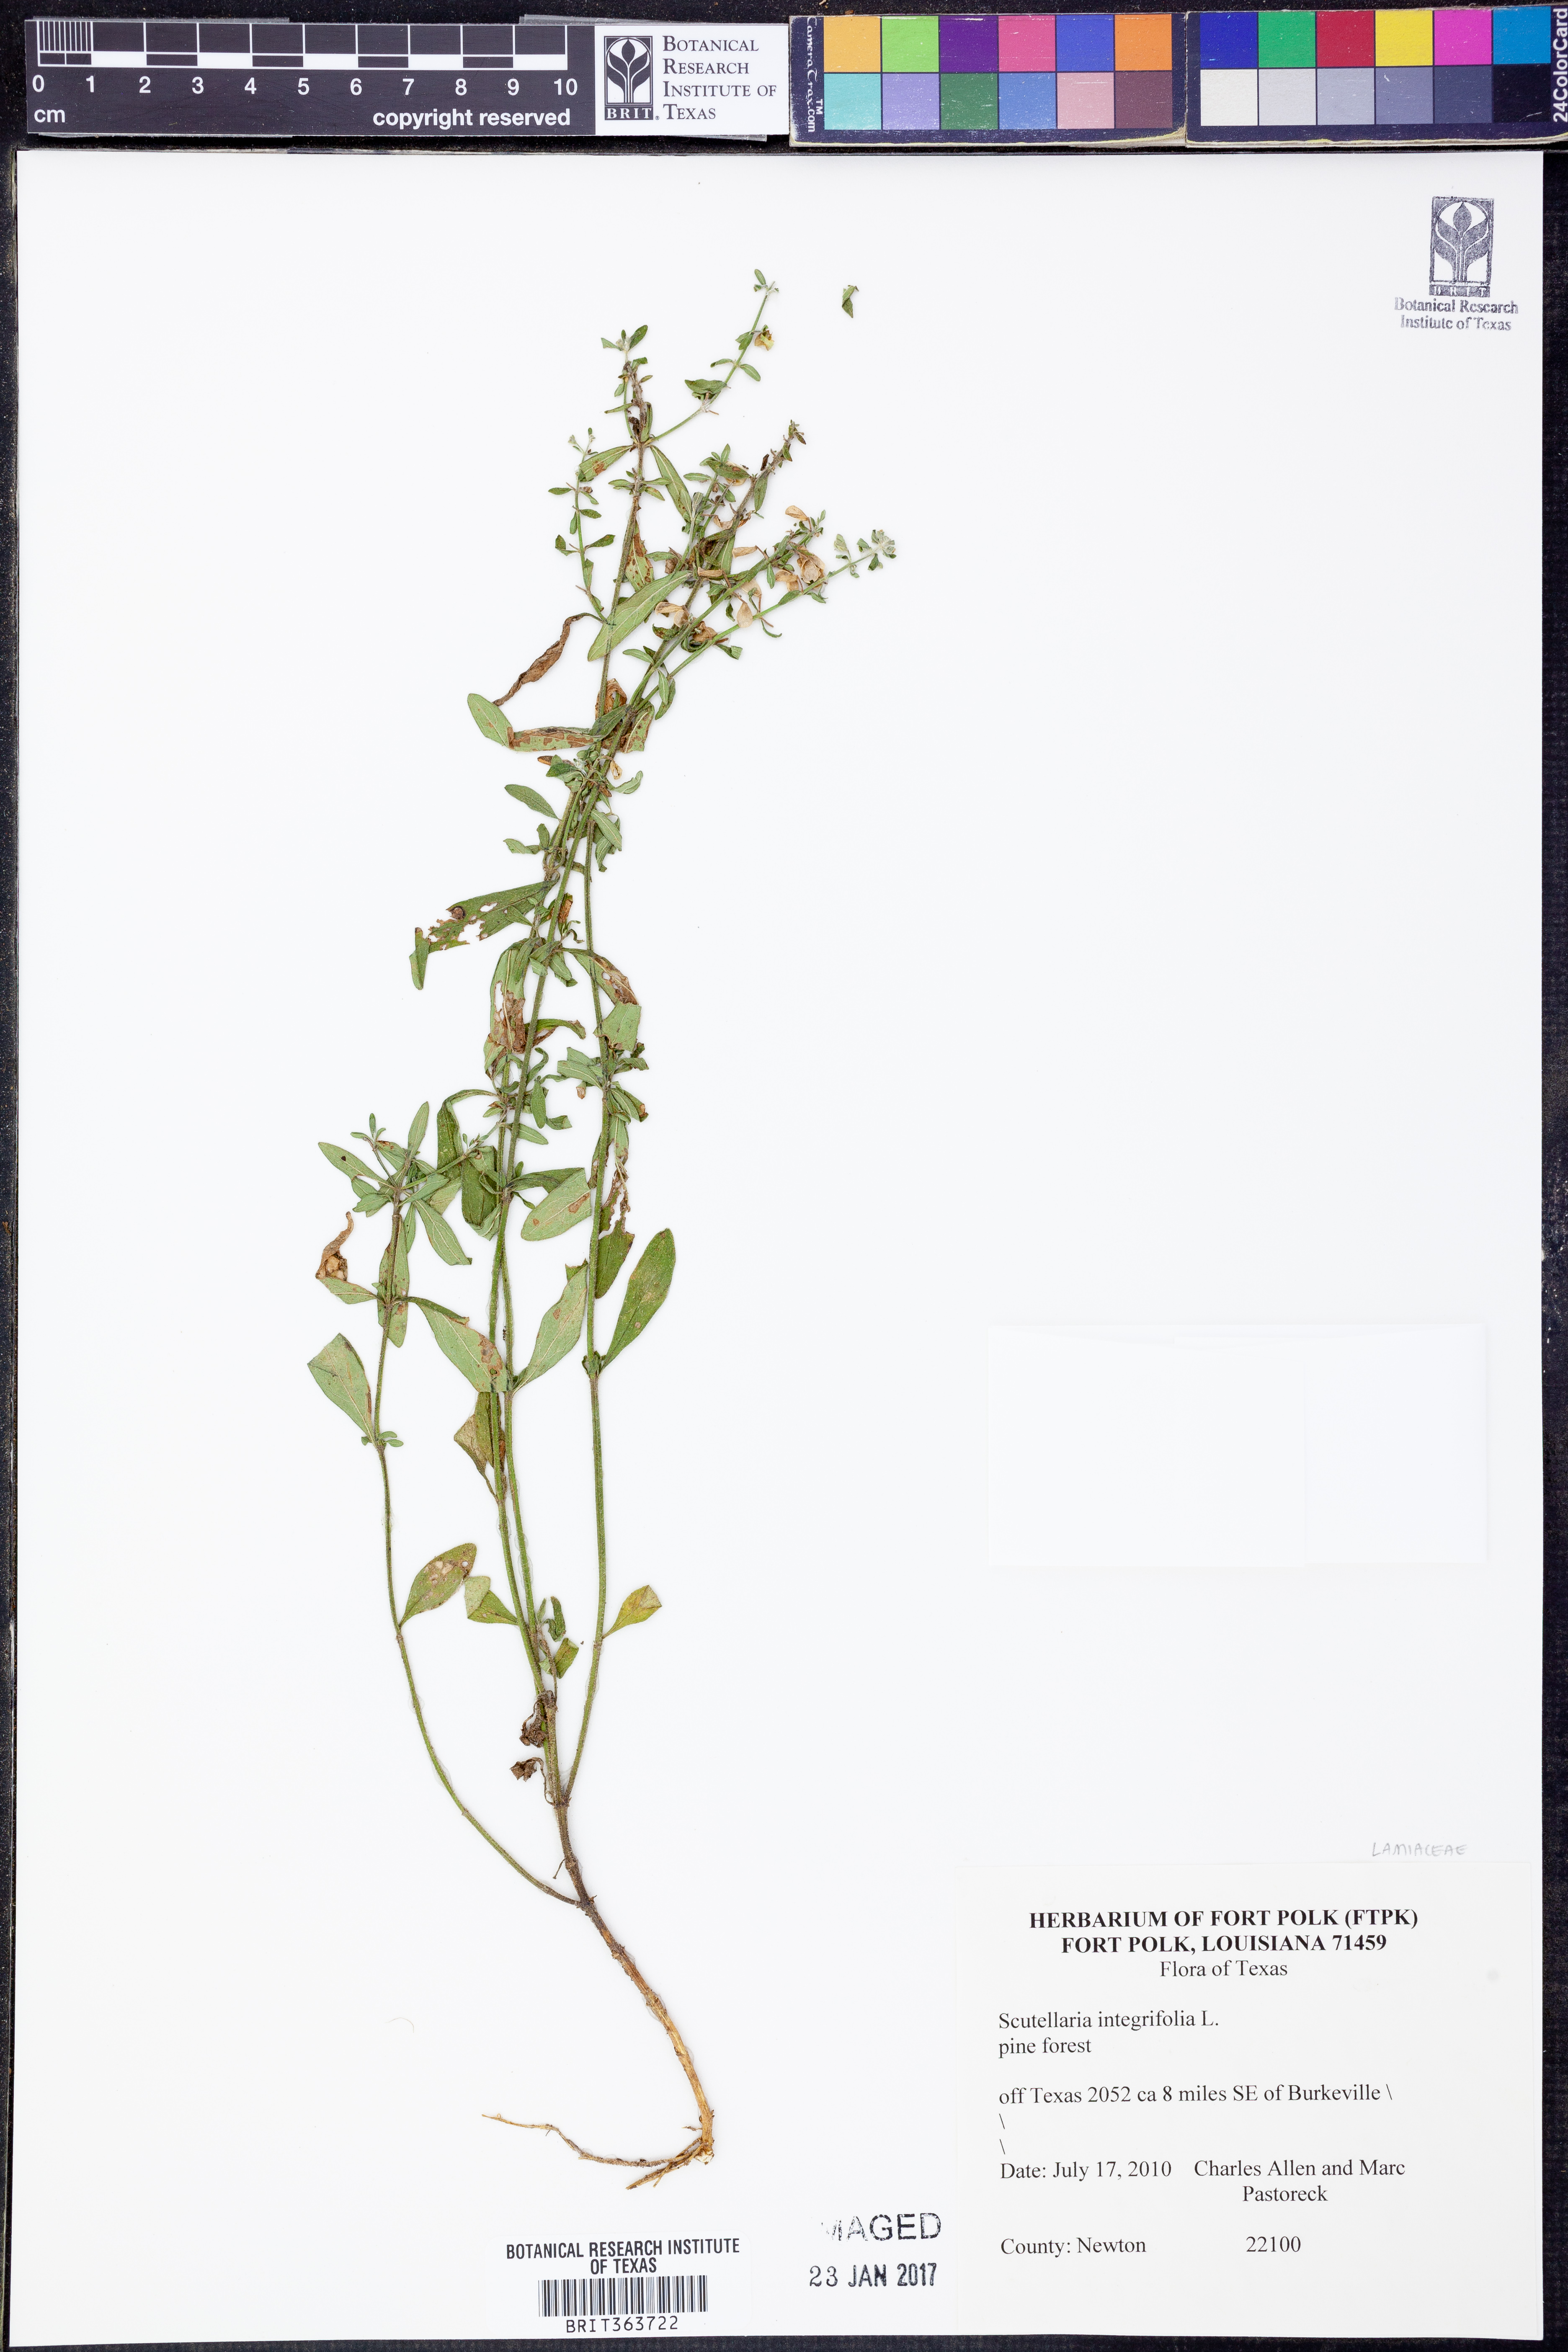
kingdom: Plantae
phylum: Tracheophyta
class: Magnoliopsida
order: Lamiales
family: Lamiaceae
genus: Scutellaria
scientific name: Scutellaria integrifolia
